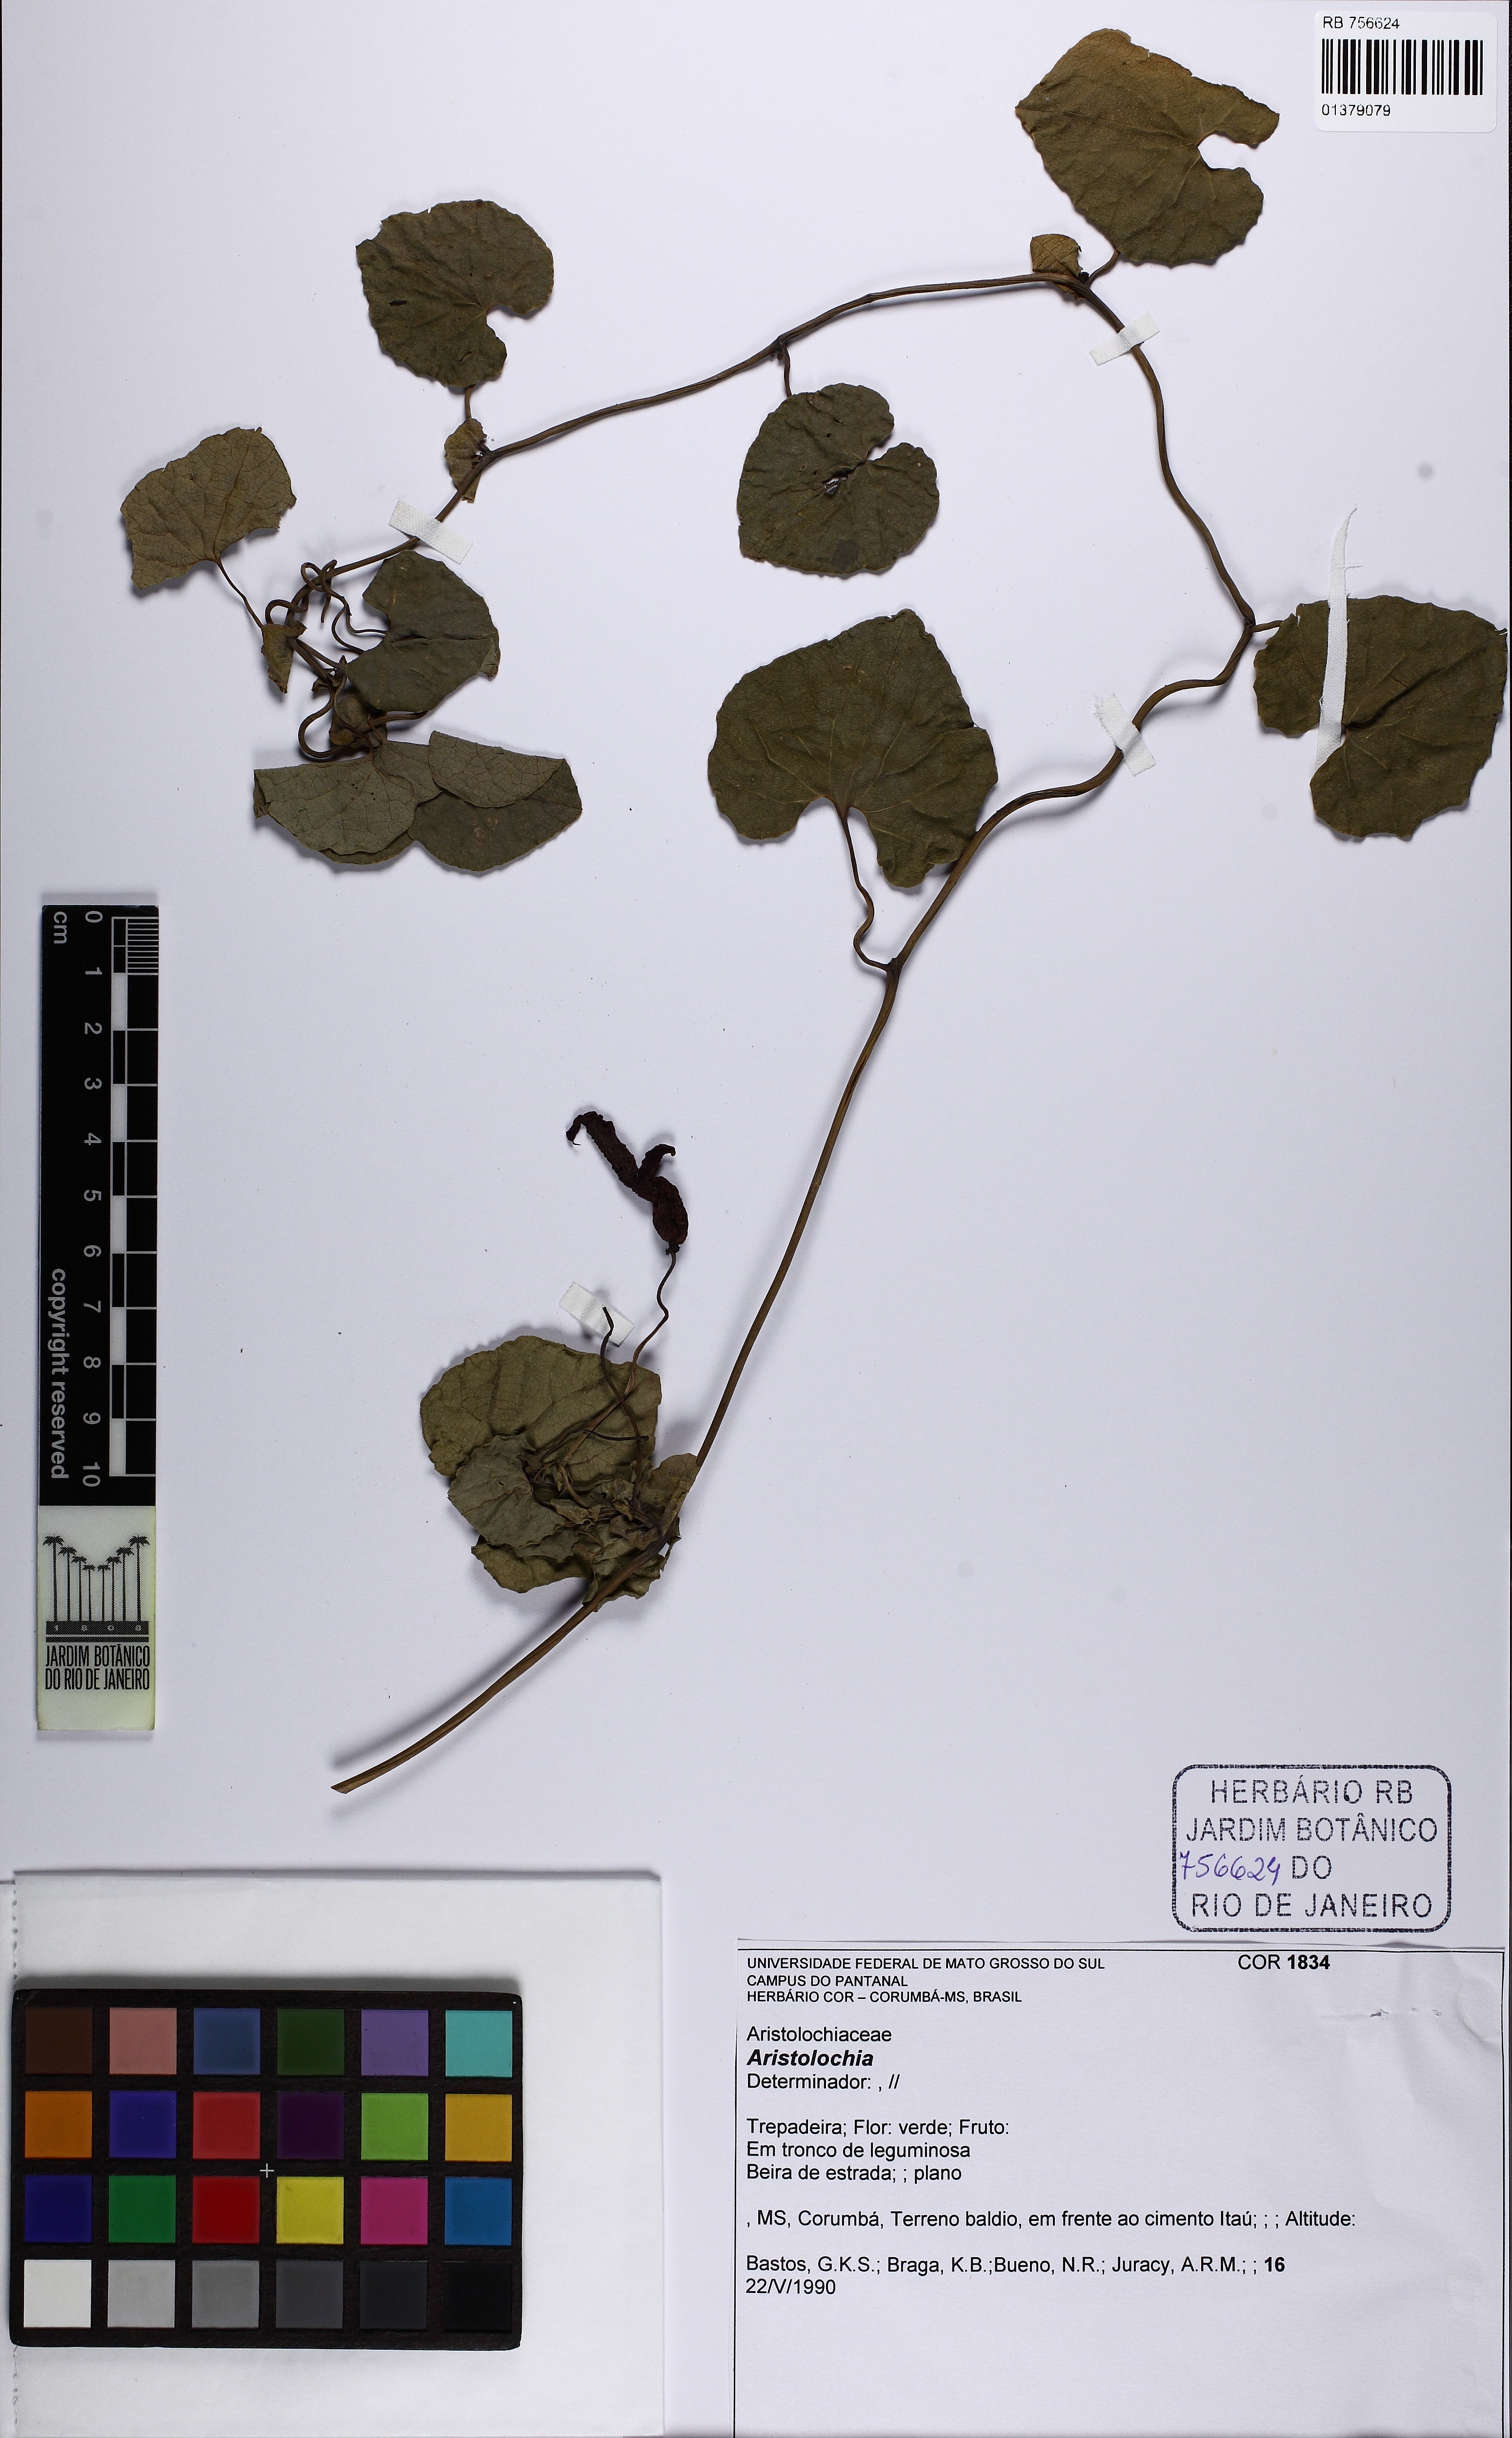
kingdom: Plantae
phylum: Tracheophyta
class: Magnoliopsida
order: Piperales
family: Aristolochiaceae
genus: Aristolochia
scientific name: Aristolochia
